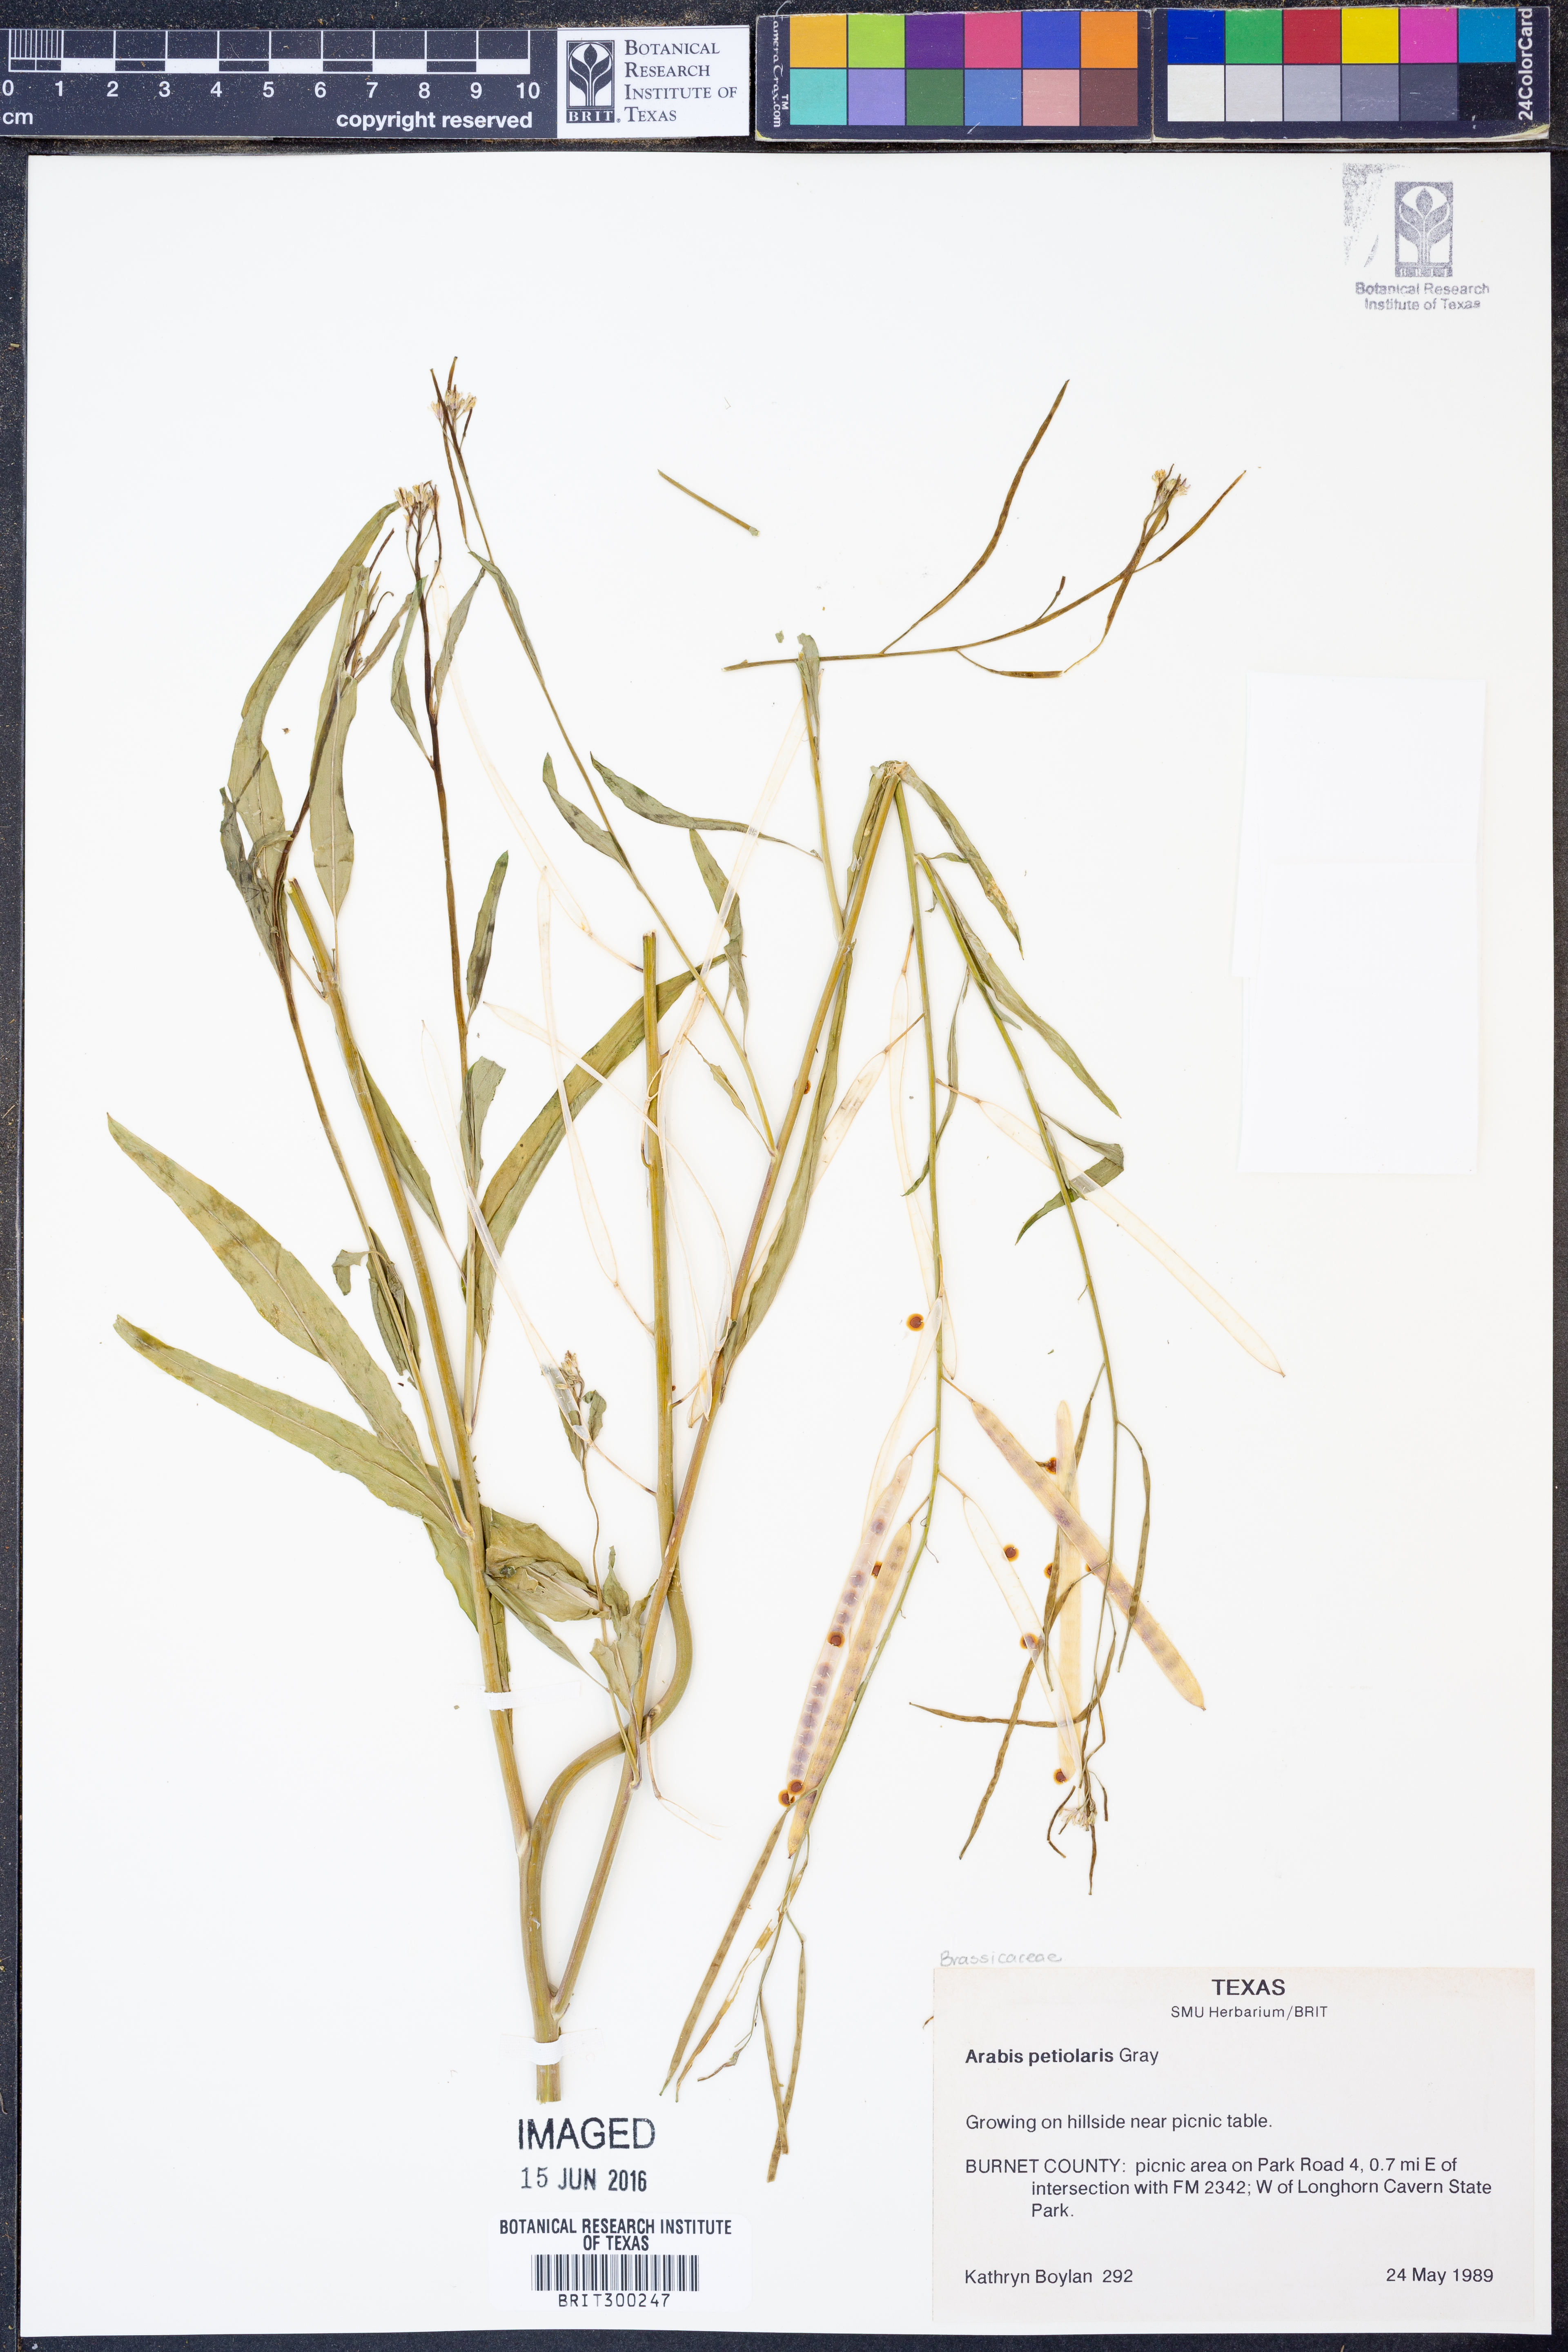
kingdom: Plantae
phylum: Tracheophyta
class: Magnoliopsida
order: Brassicales
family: Brassicaceae
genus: Streptanthus
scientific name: Streptanthus petiolaris
